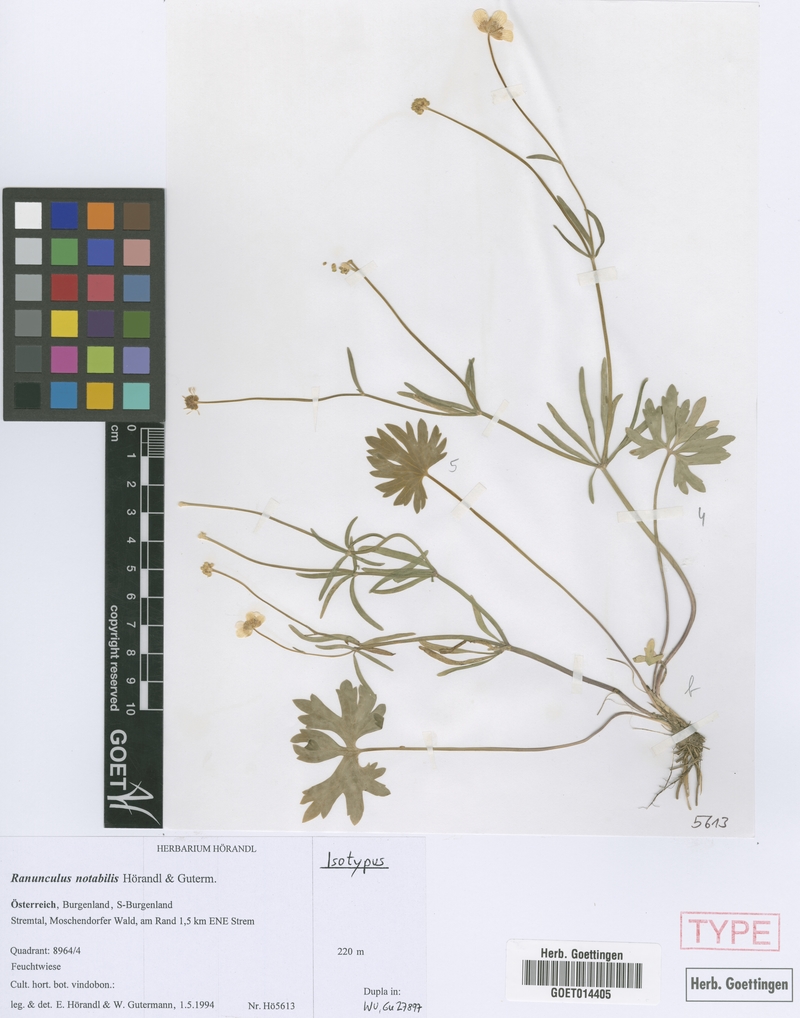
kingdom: Plantae
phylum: Tracheophyta
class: Magnoliopsida
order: Ranunculales
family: Ranunculaceae
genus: Ranunculus
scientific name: Ranunculus notabilis
